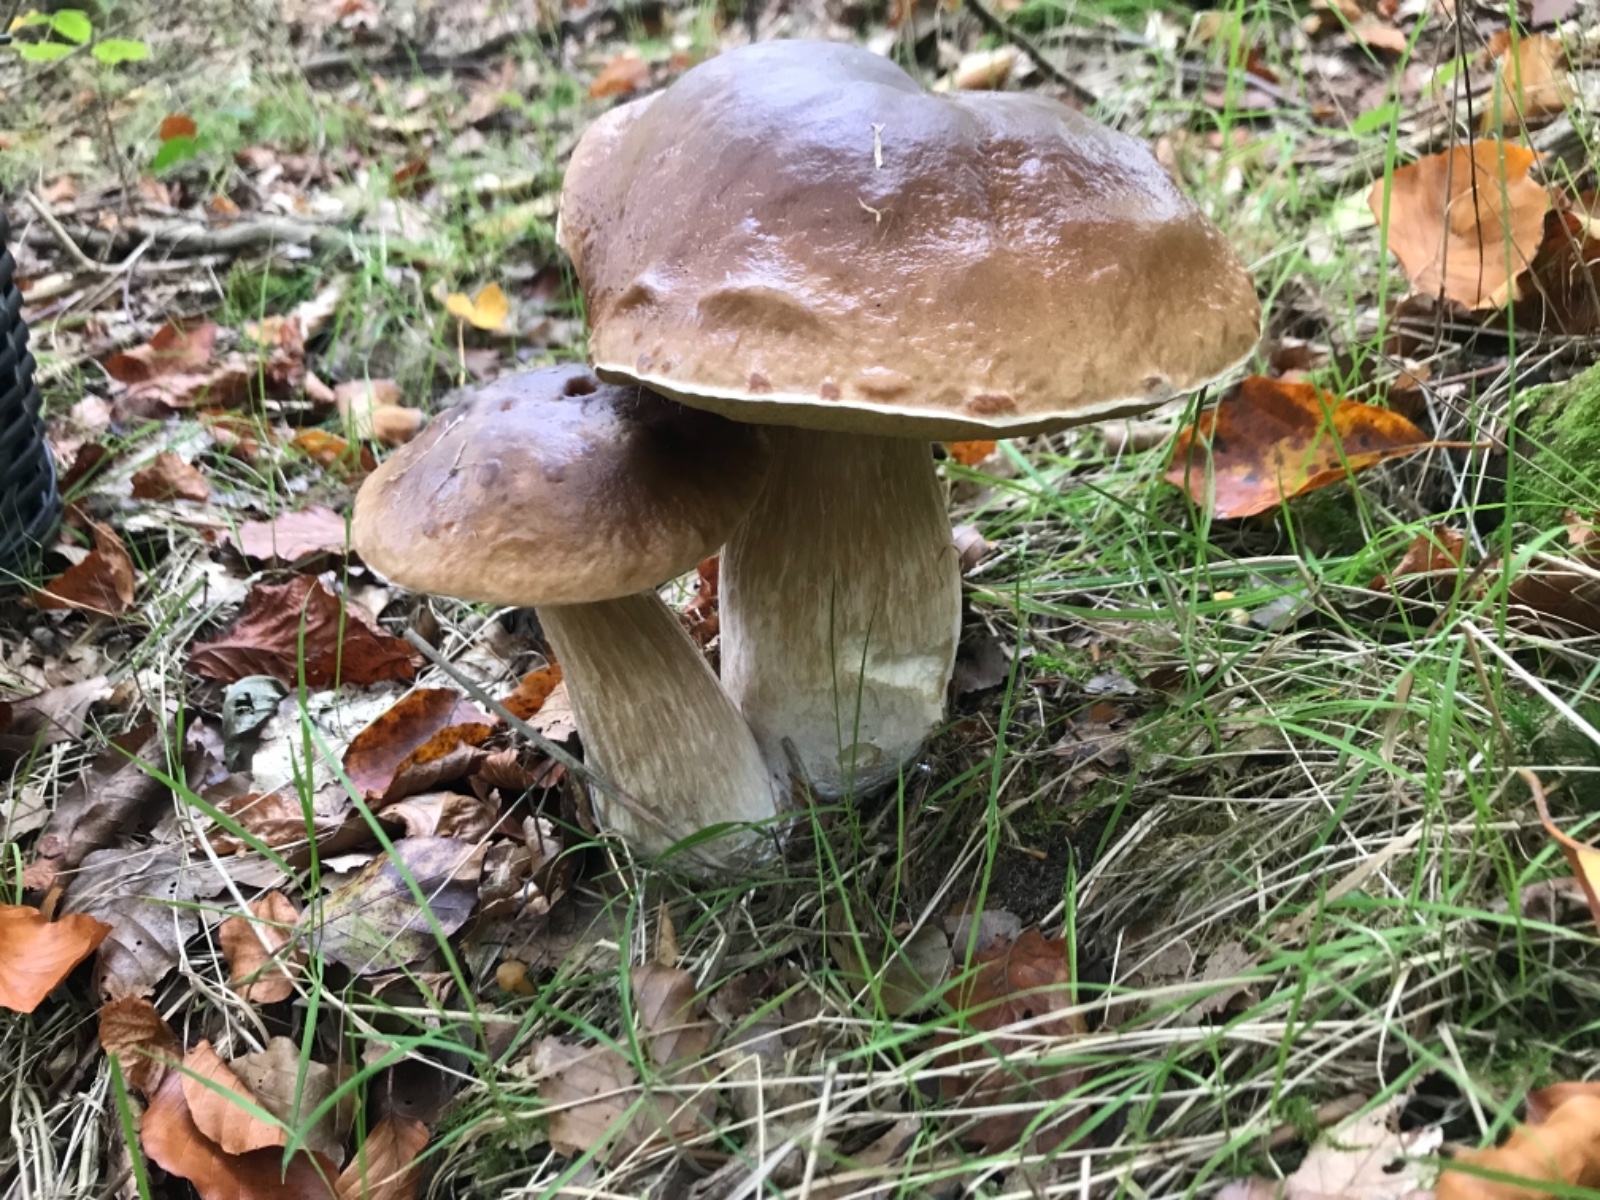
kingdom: Fungi
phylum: Basidiomycota
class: Agaricomycetes
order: Boletales
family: Boletaceae
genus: Boletus
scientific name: Boletus edulis
